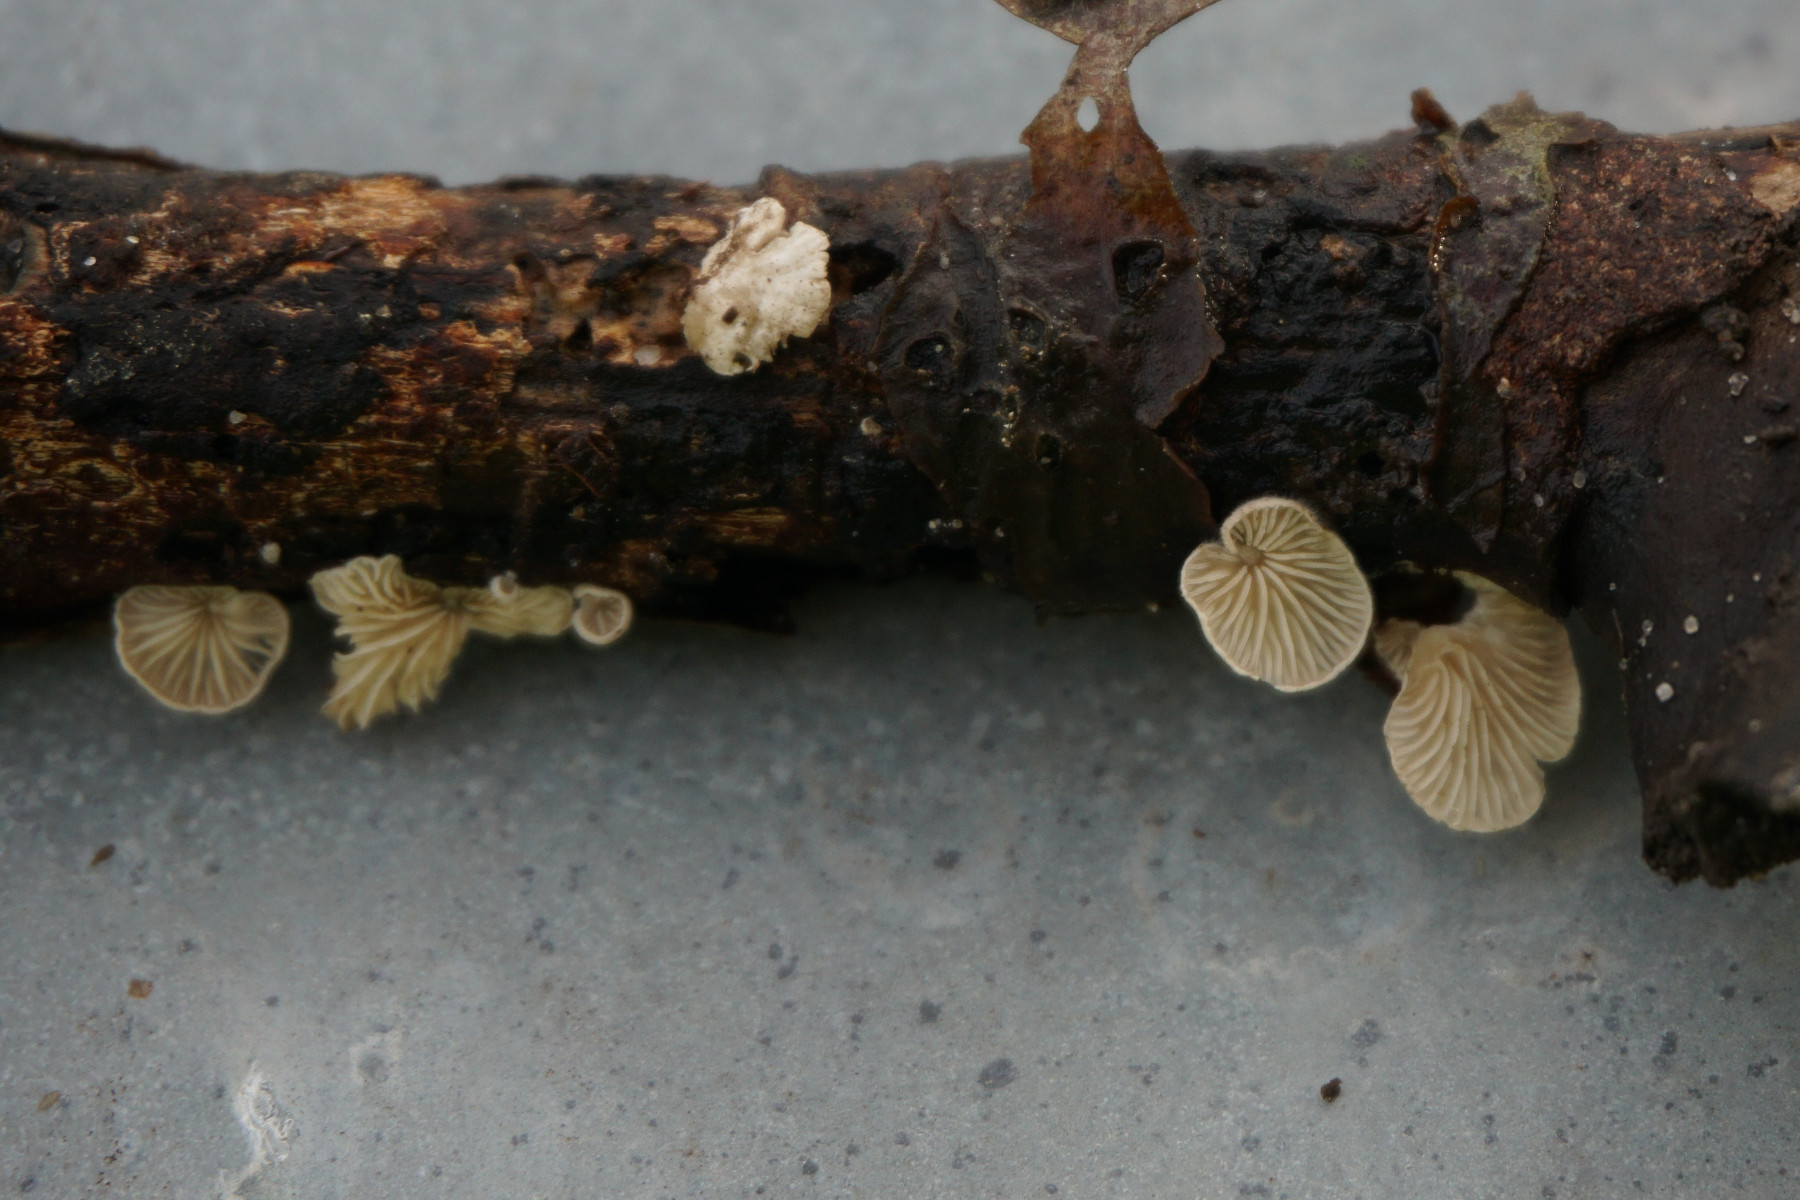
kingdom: Fungi
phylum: Basidiomycota
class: Agaricomycetes
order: Agaricales
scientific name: Agaricales
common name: champignonordenen
